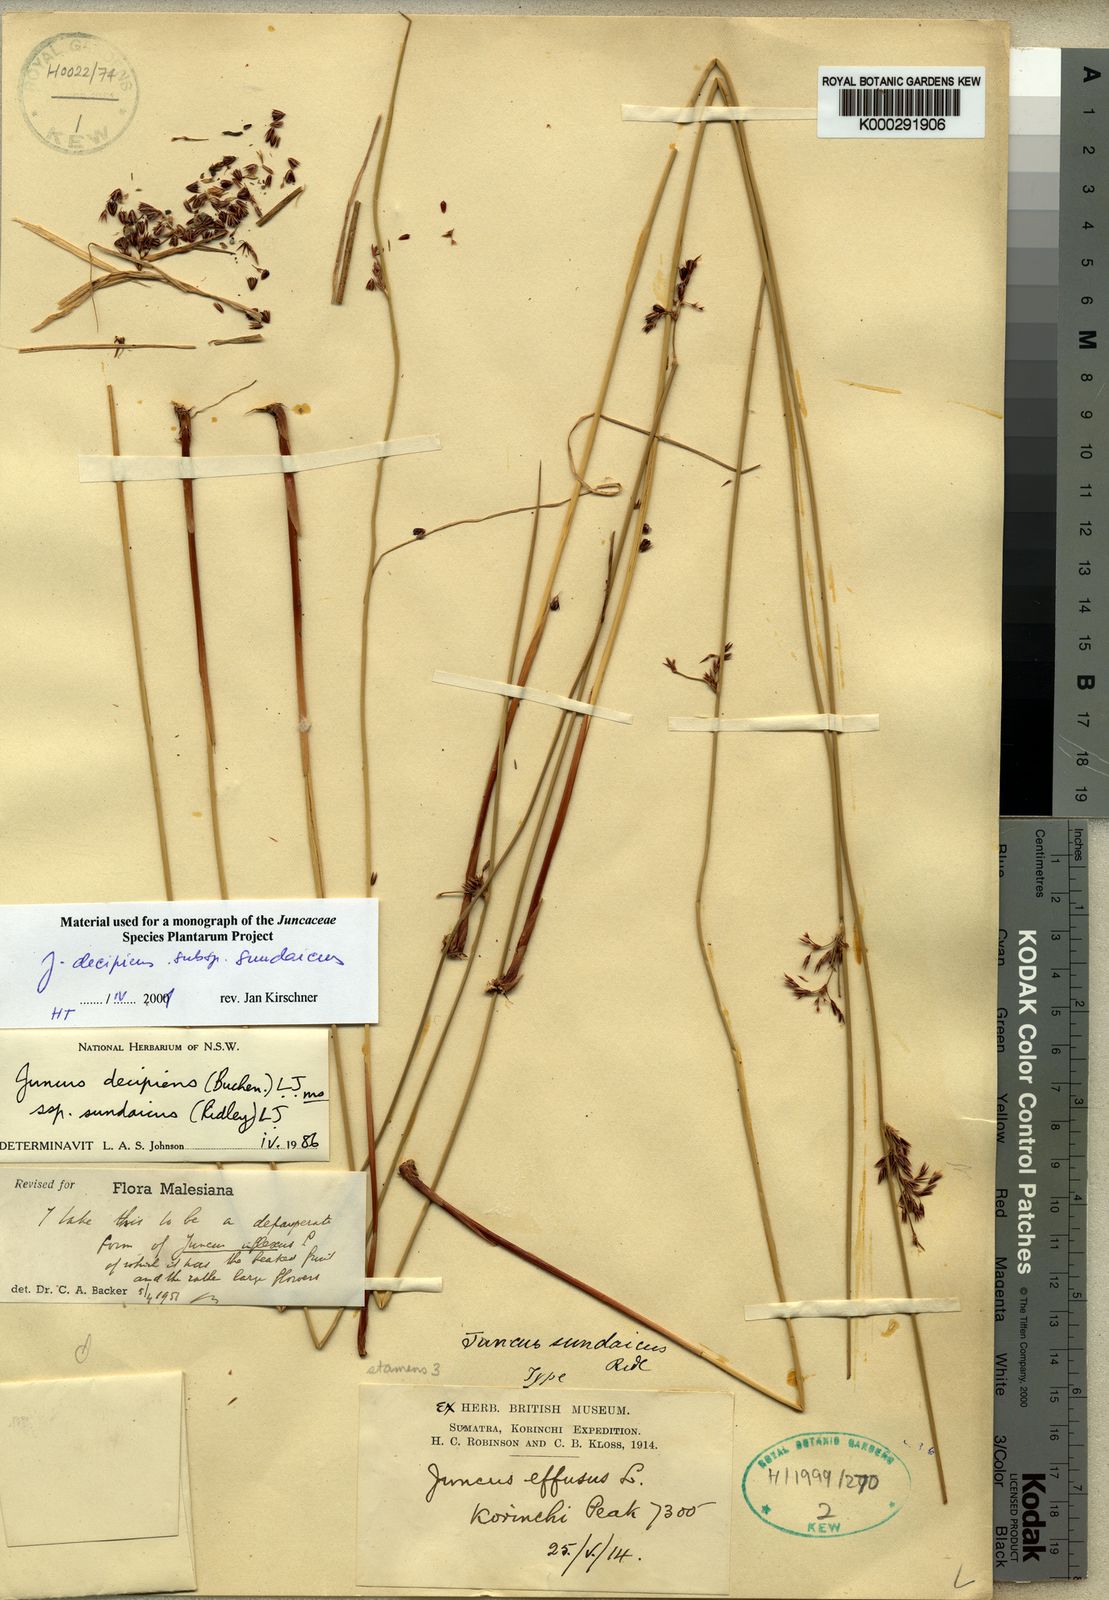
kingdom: Plantae
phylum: Tracheophyta
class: Liliopsida
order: Poales
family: Juncaceae
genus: Juncus
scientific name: Juncus decipiens
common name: Lamp rush
